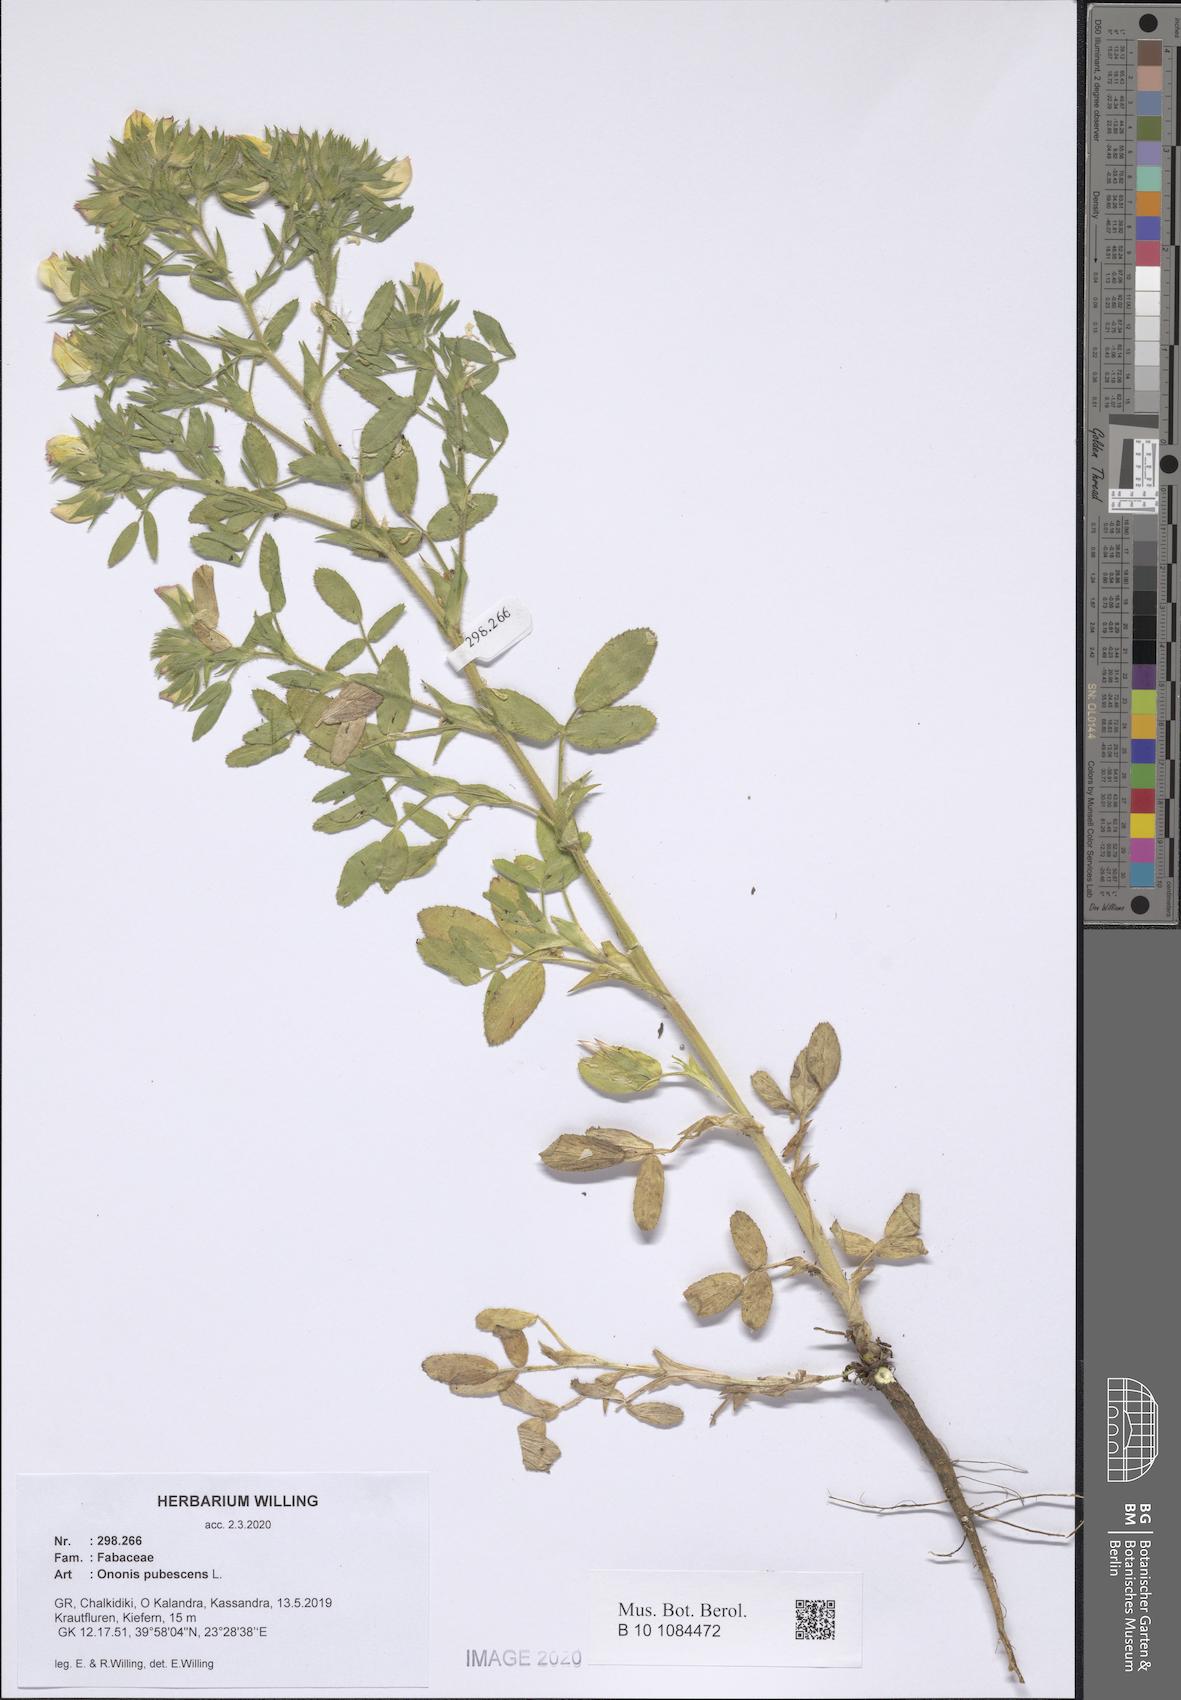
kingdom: Plantae
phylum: Tracheophyta
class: Magnoliopsida
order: Fabales
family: Fabaceae
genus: Ononis
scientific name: Ononis pubescens
